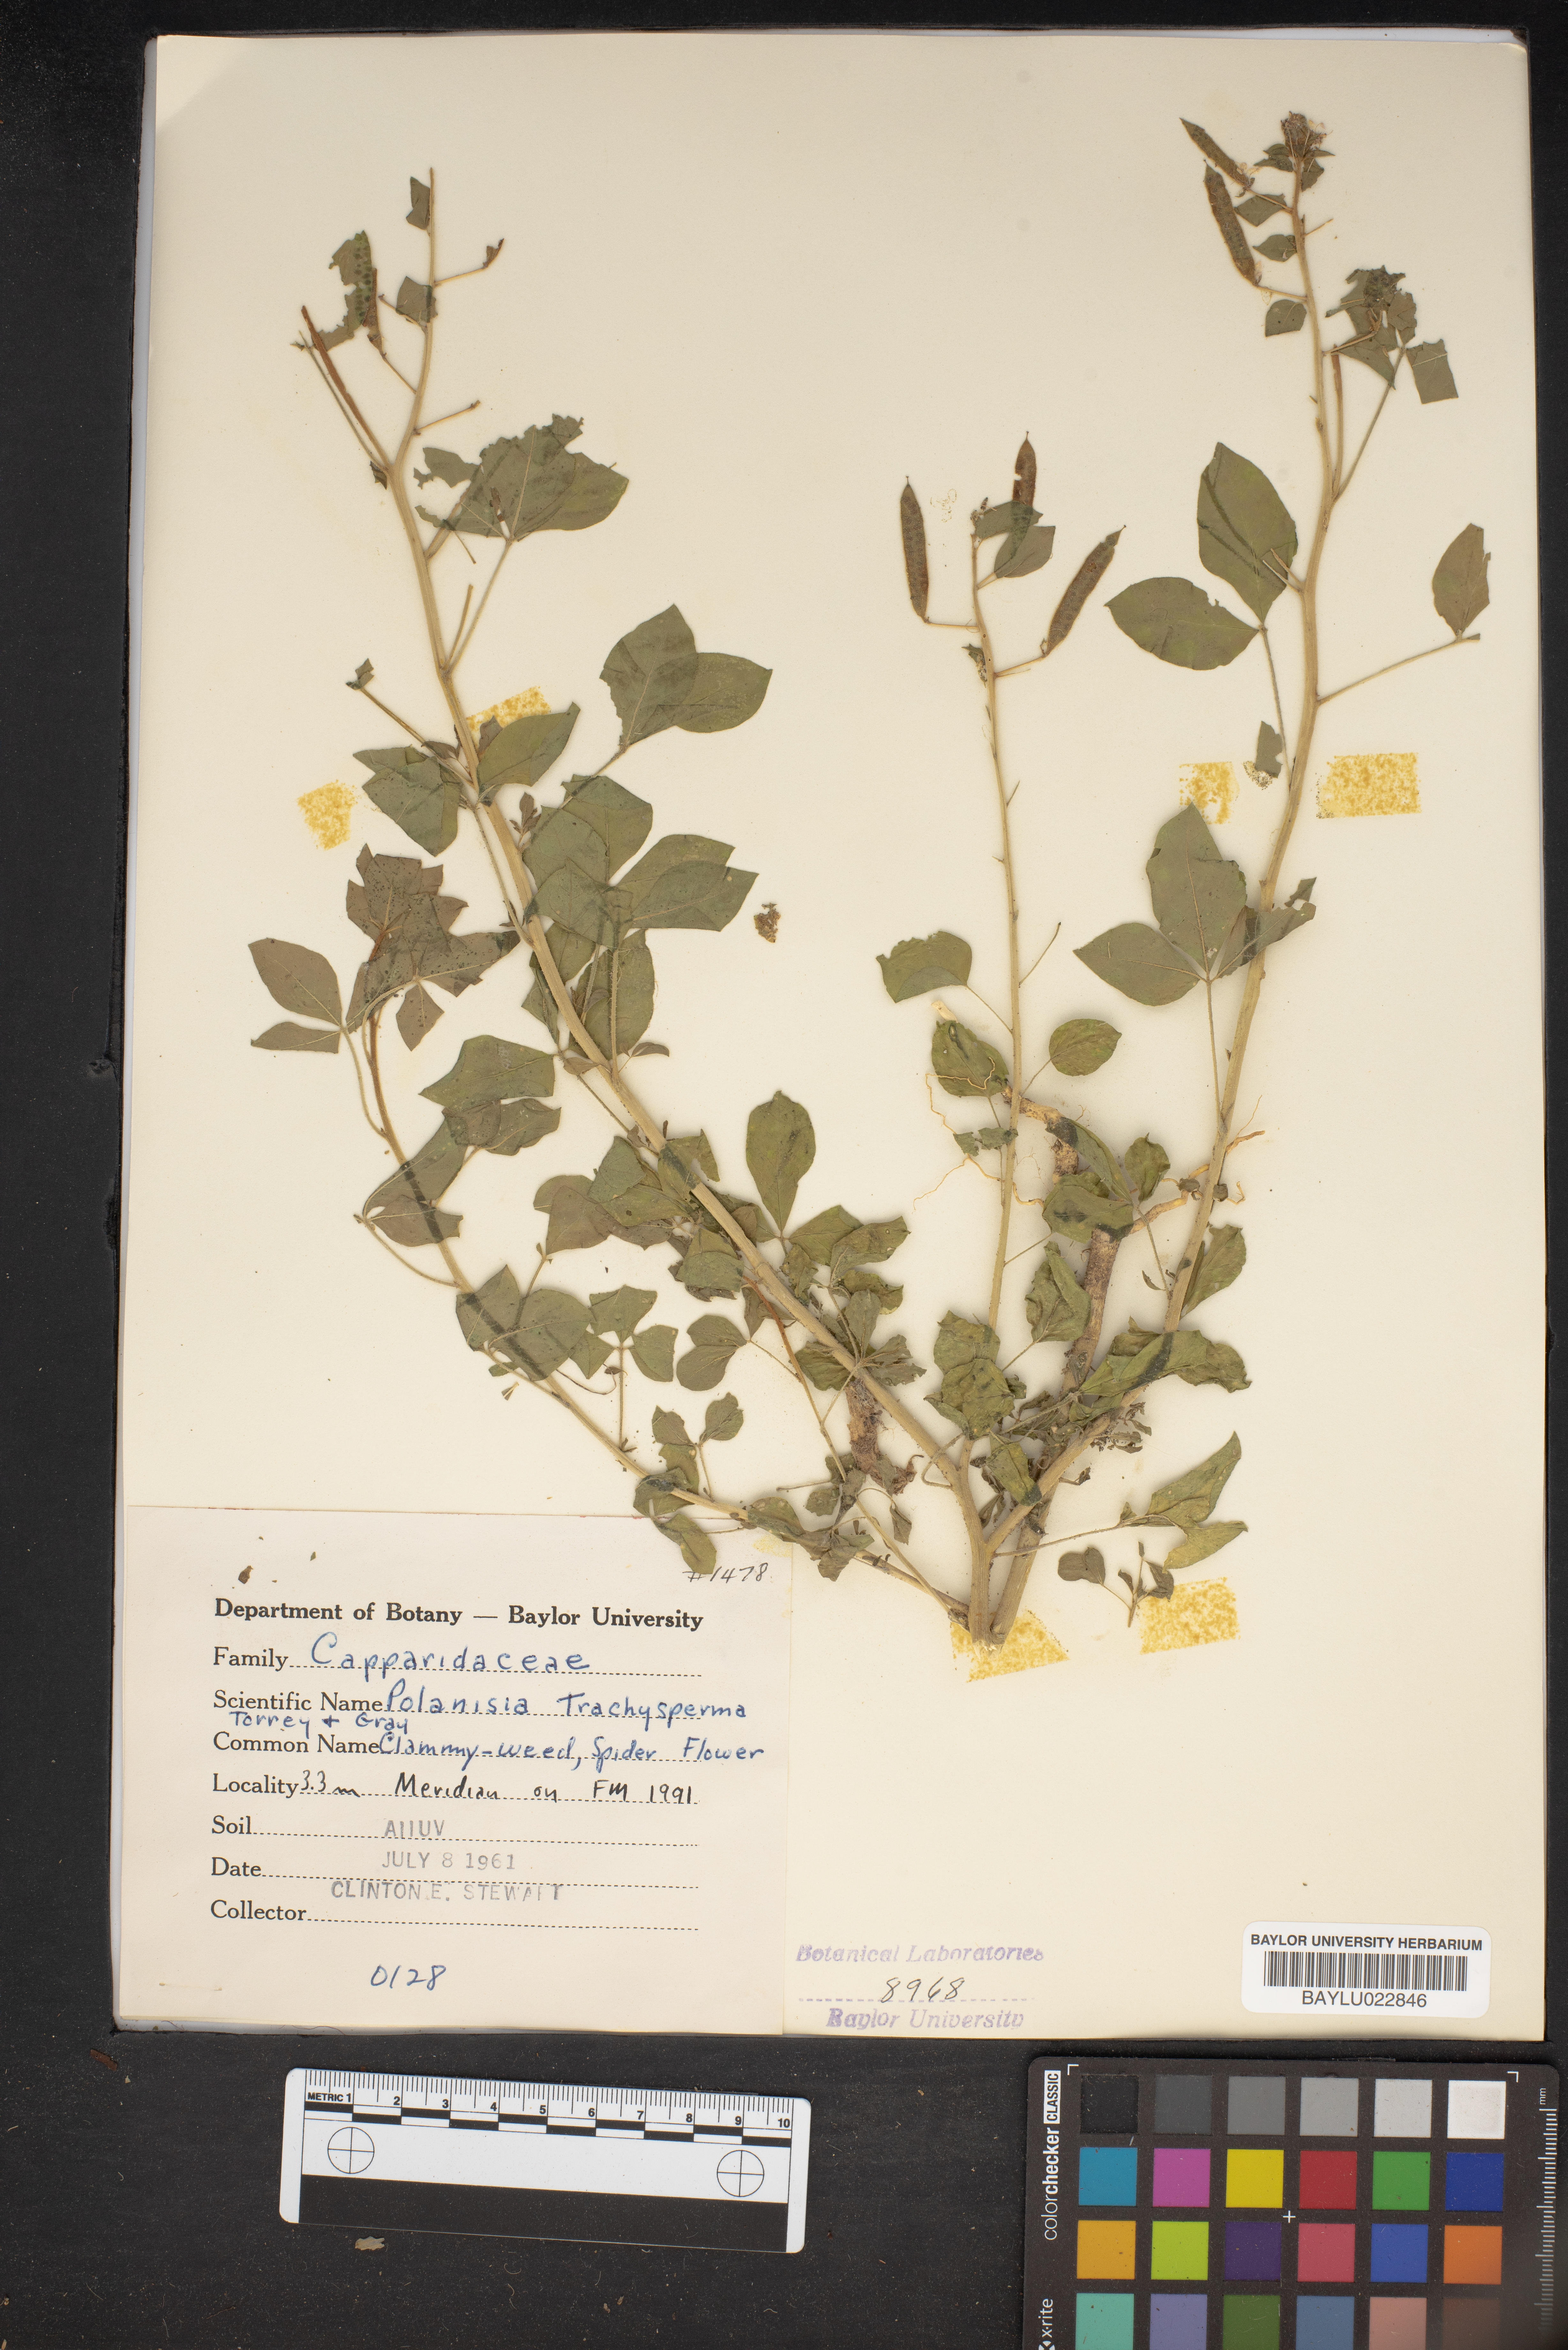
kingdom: Plantae
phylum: Tracheophyta
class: Magnoliopsida
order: Brassicales
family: Cleomaceae
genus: Polanisia
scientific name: Polanisia trachysperma
